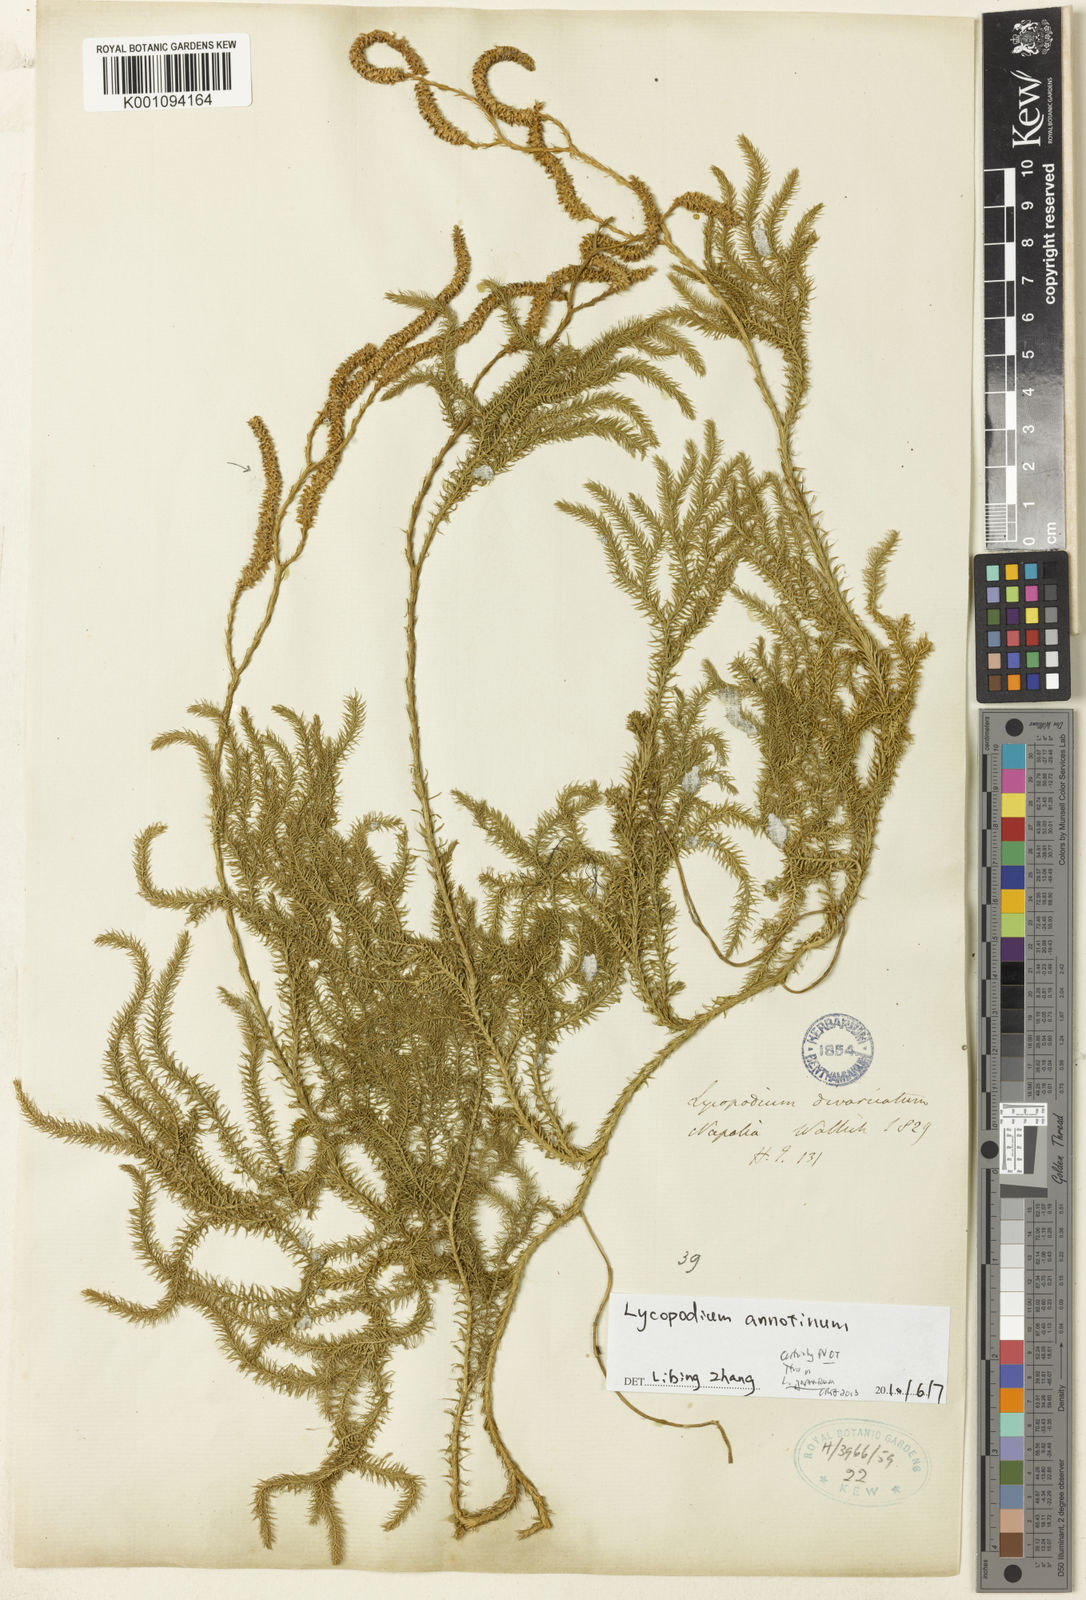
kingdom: Plantae
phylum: Tracheophyta
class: Lycopodiopsida
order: Lycopodiales
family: Lycopodiaceae
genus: Lycopodium
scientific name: Lycopodium clavatum
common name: Stag's-horn clubmoss
